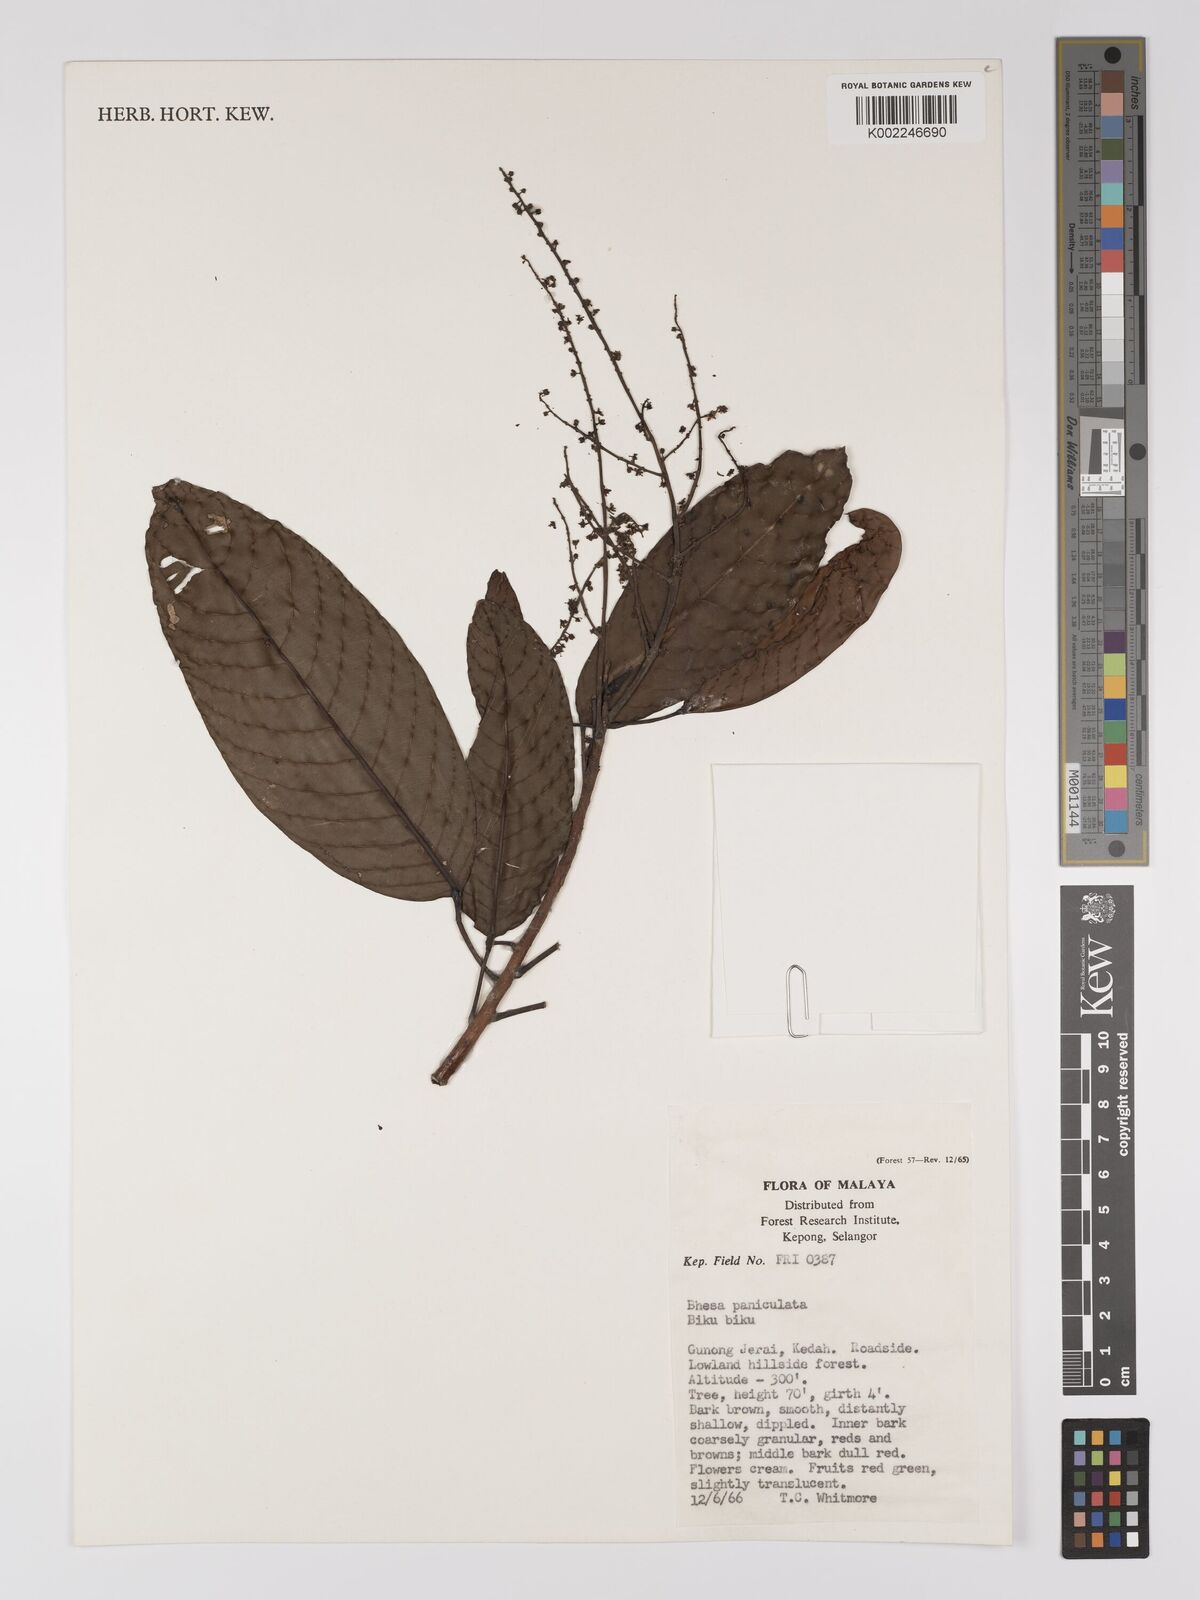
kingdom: Plantae
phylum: Tracheophyta
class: Magnoliopsida
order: Malpighiales
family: Centroplacaceae
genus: Bhesa
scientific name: Bhesa paniculata
